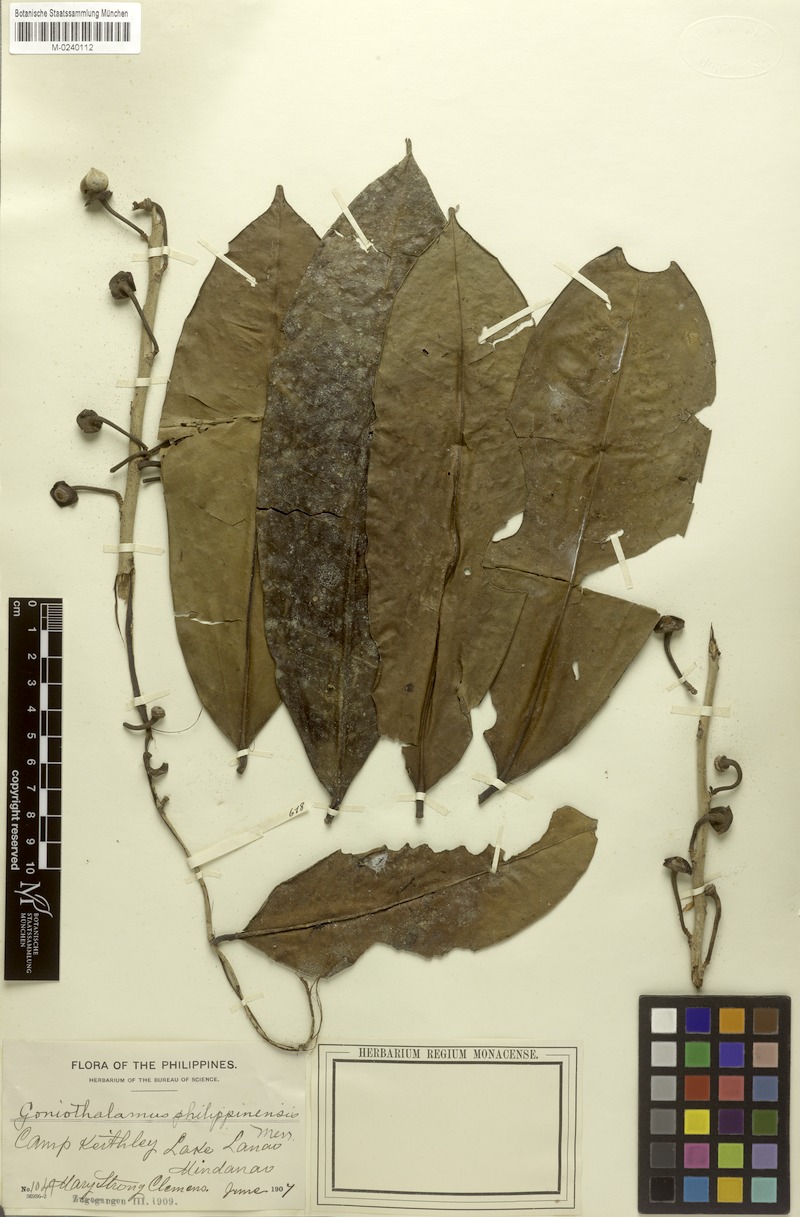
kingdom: Plantae
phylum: Tracheophyta
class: Magnoliopsida
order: Magnoliales
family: Annonaceae
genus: Goniothalamus
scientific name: Goniothalamus philippinensis
